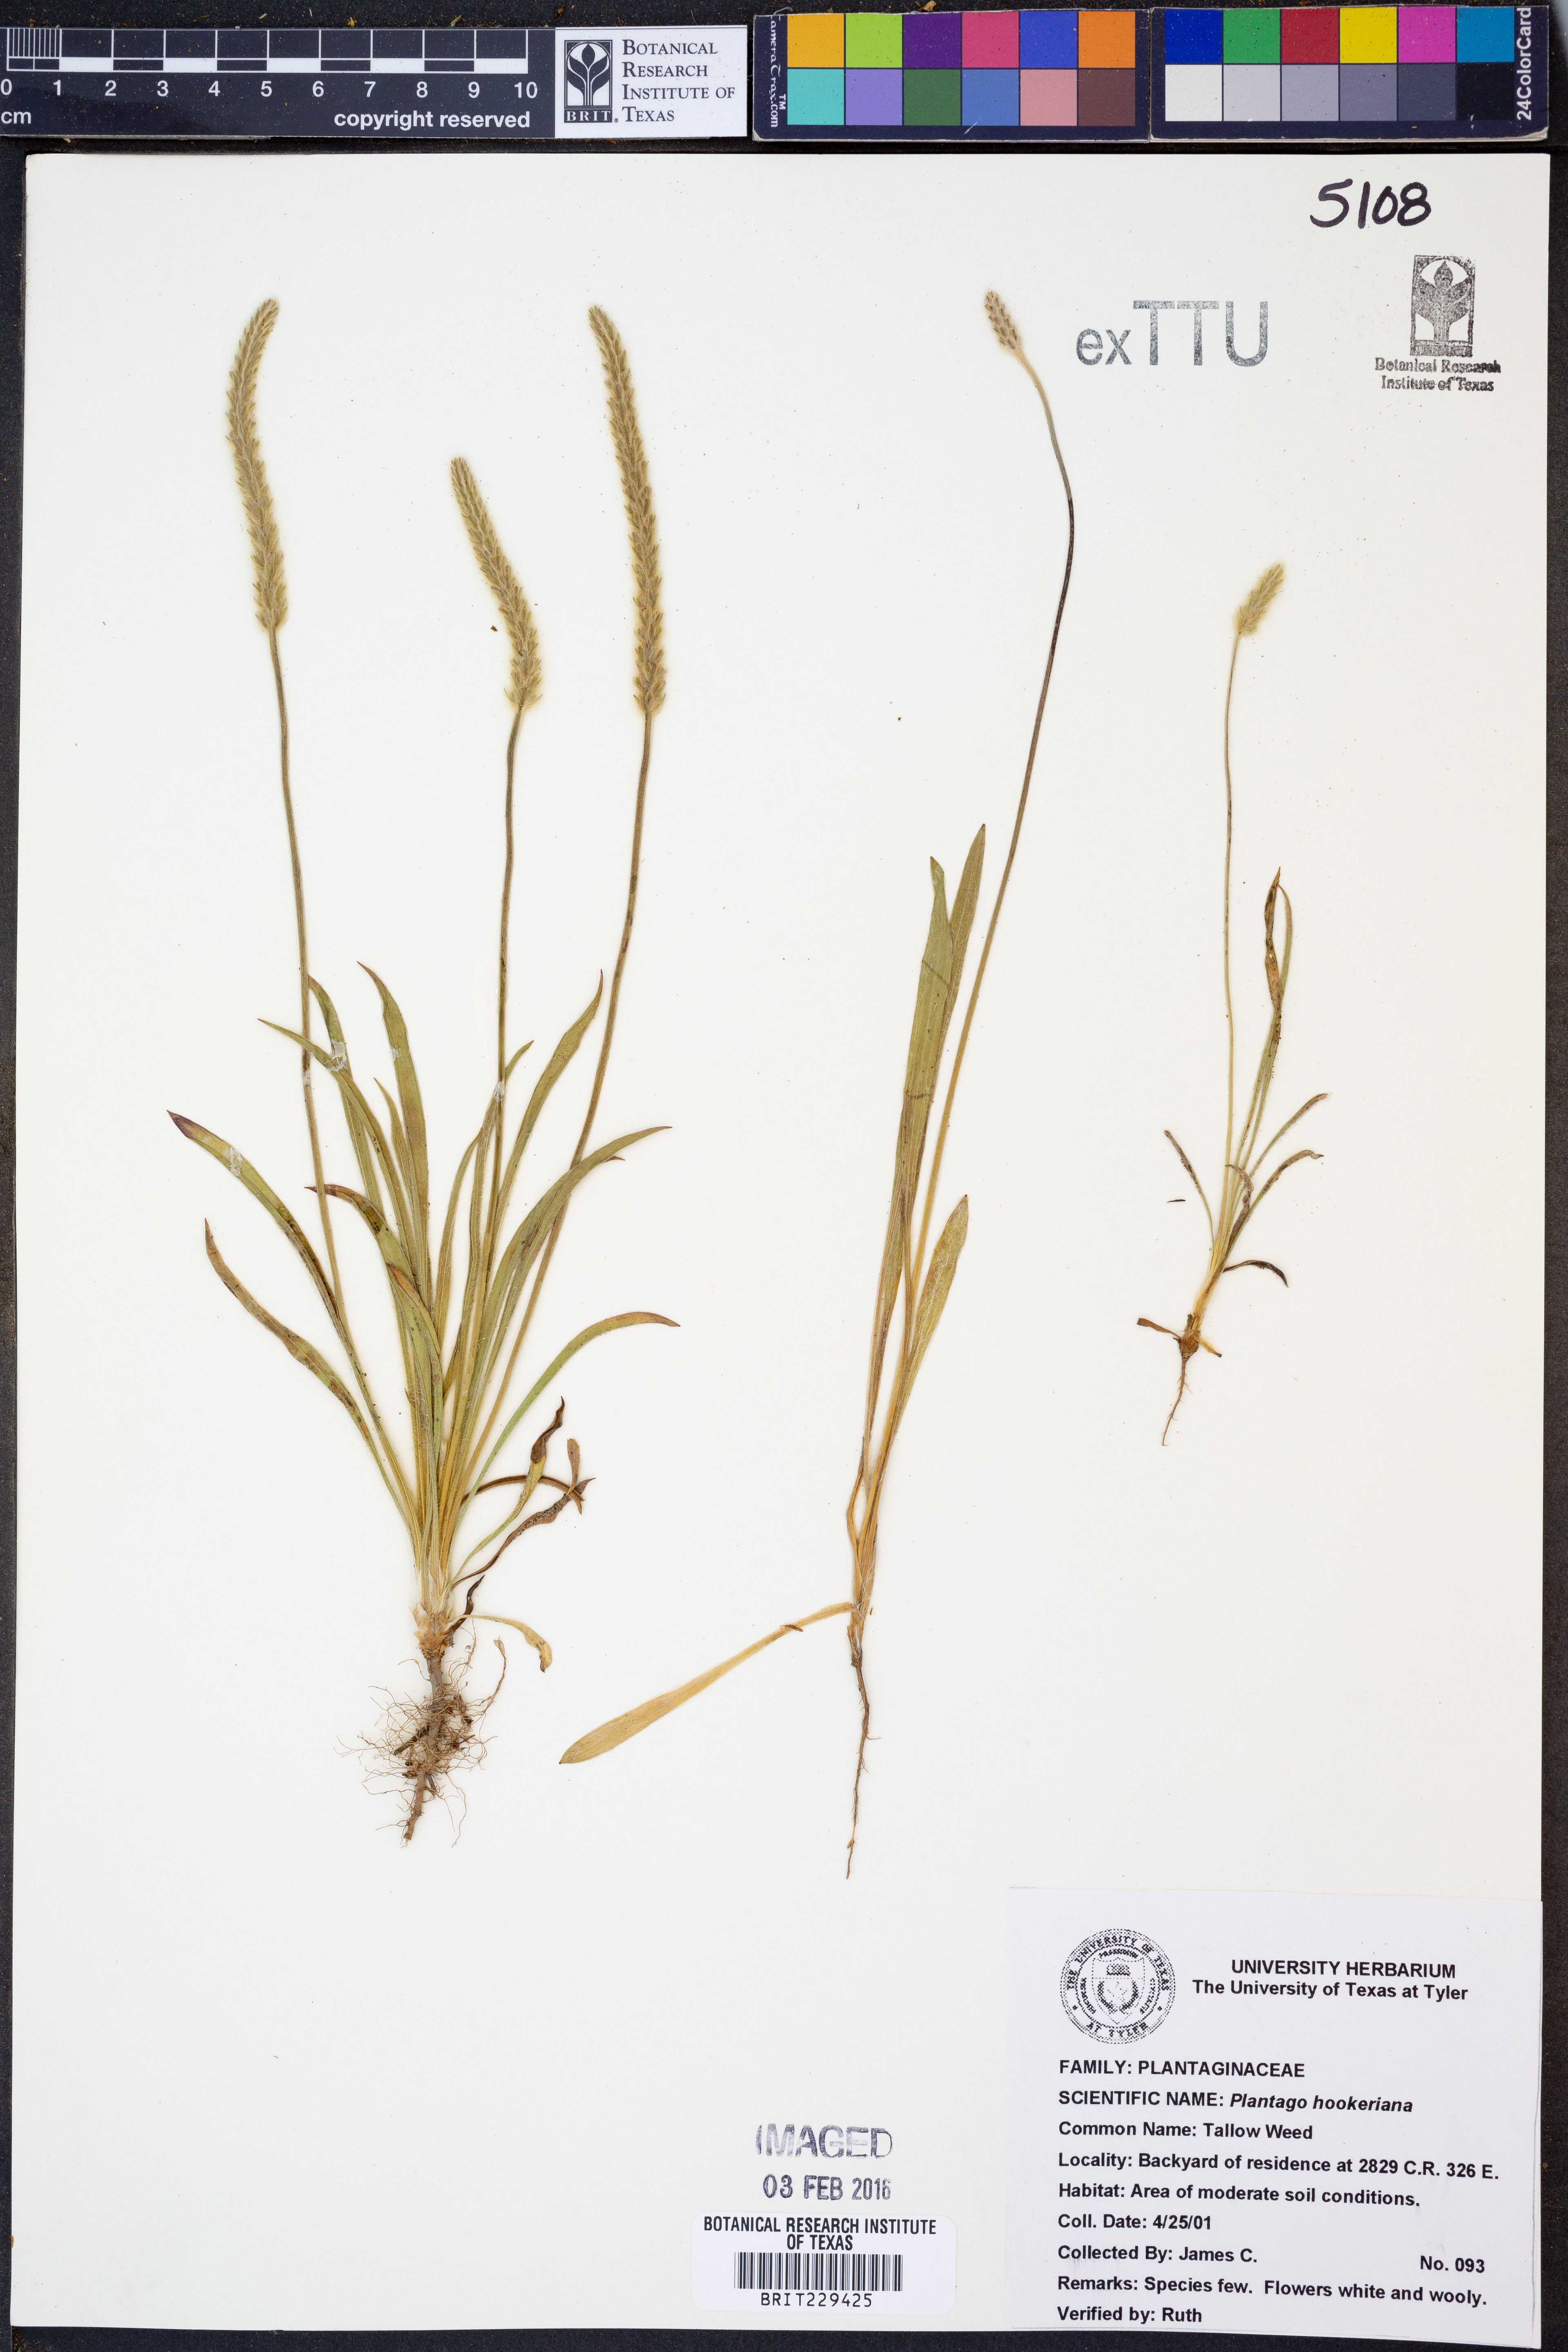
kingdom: Plantae
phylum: Tracheophyta
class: Magnoliopsida
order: Lamiales
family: Plantaginaceae
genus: Plantago
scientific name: Plantago hookeriana
